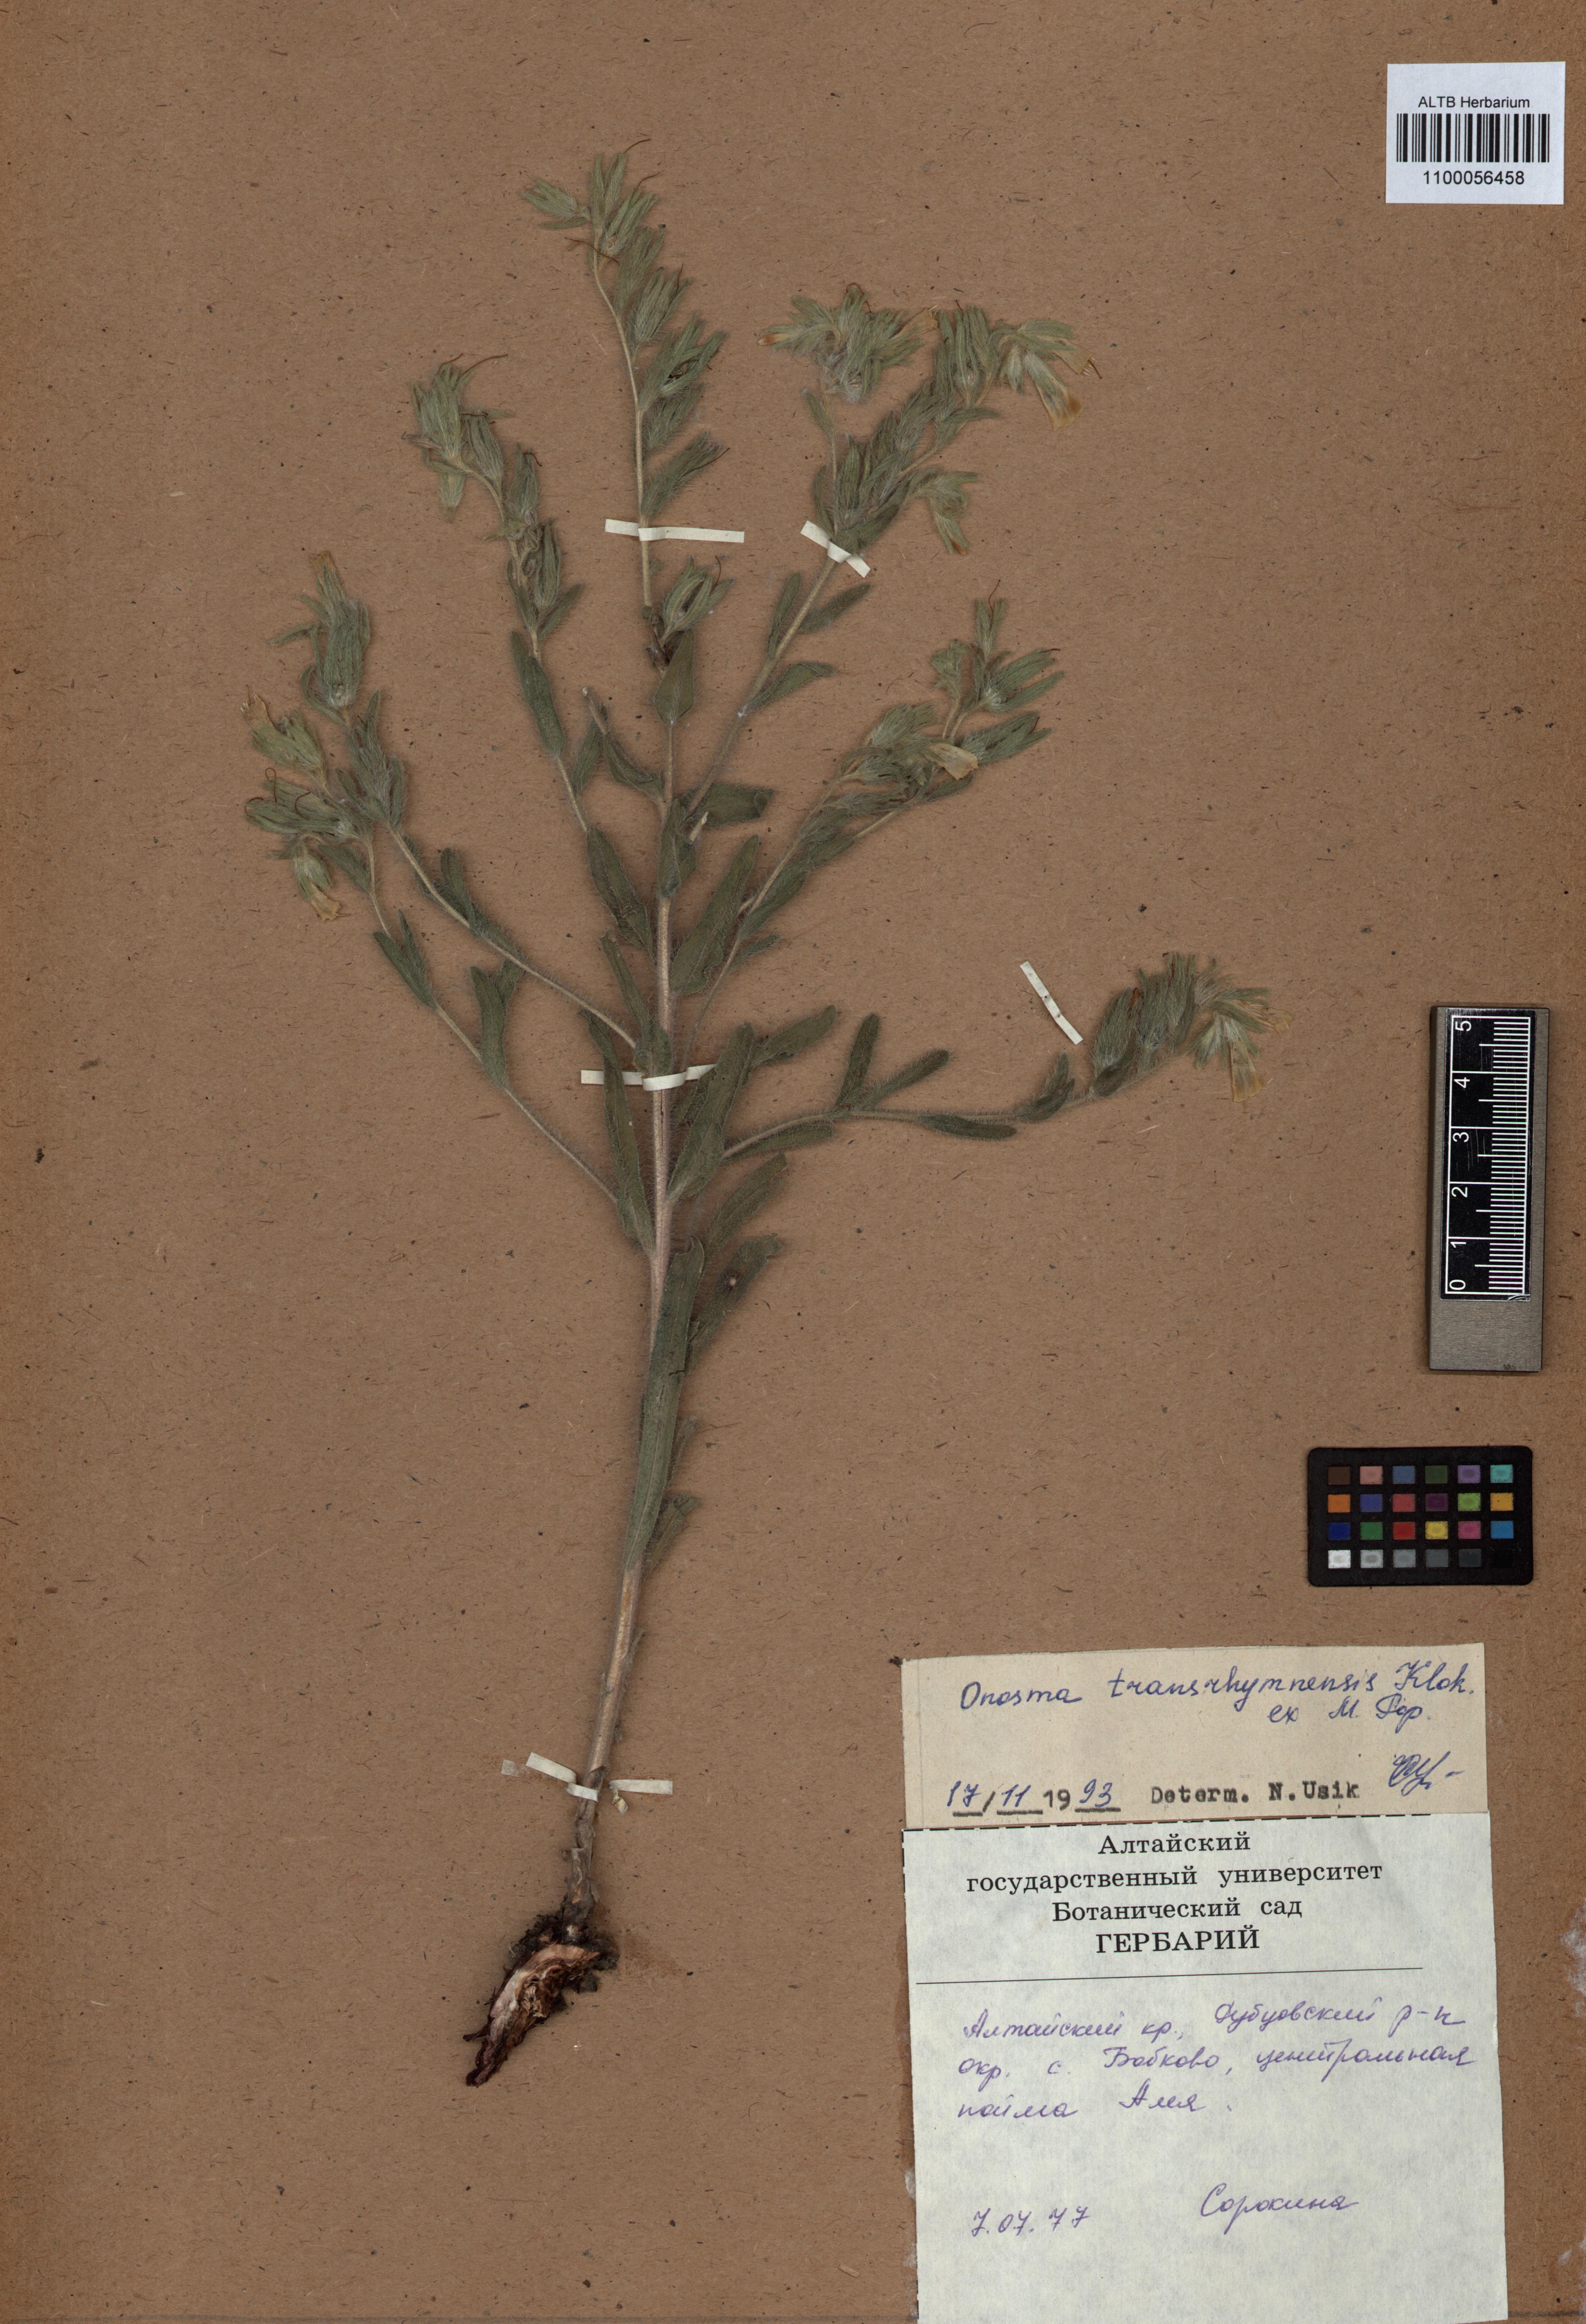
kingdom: Plantae
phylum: Tracheophyta
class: Magnoliopsida
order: Boraginales
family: Boraginaceae
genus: Onosma
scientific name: Onosma transrhymnensis
